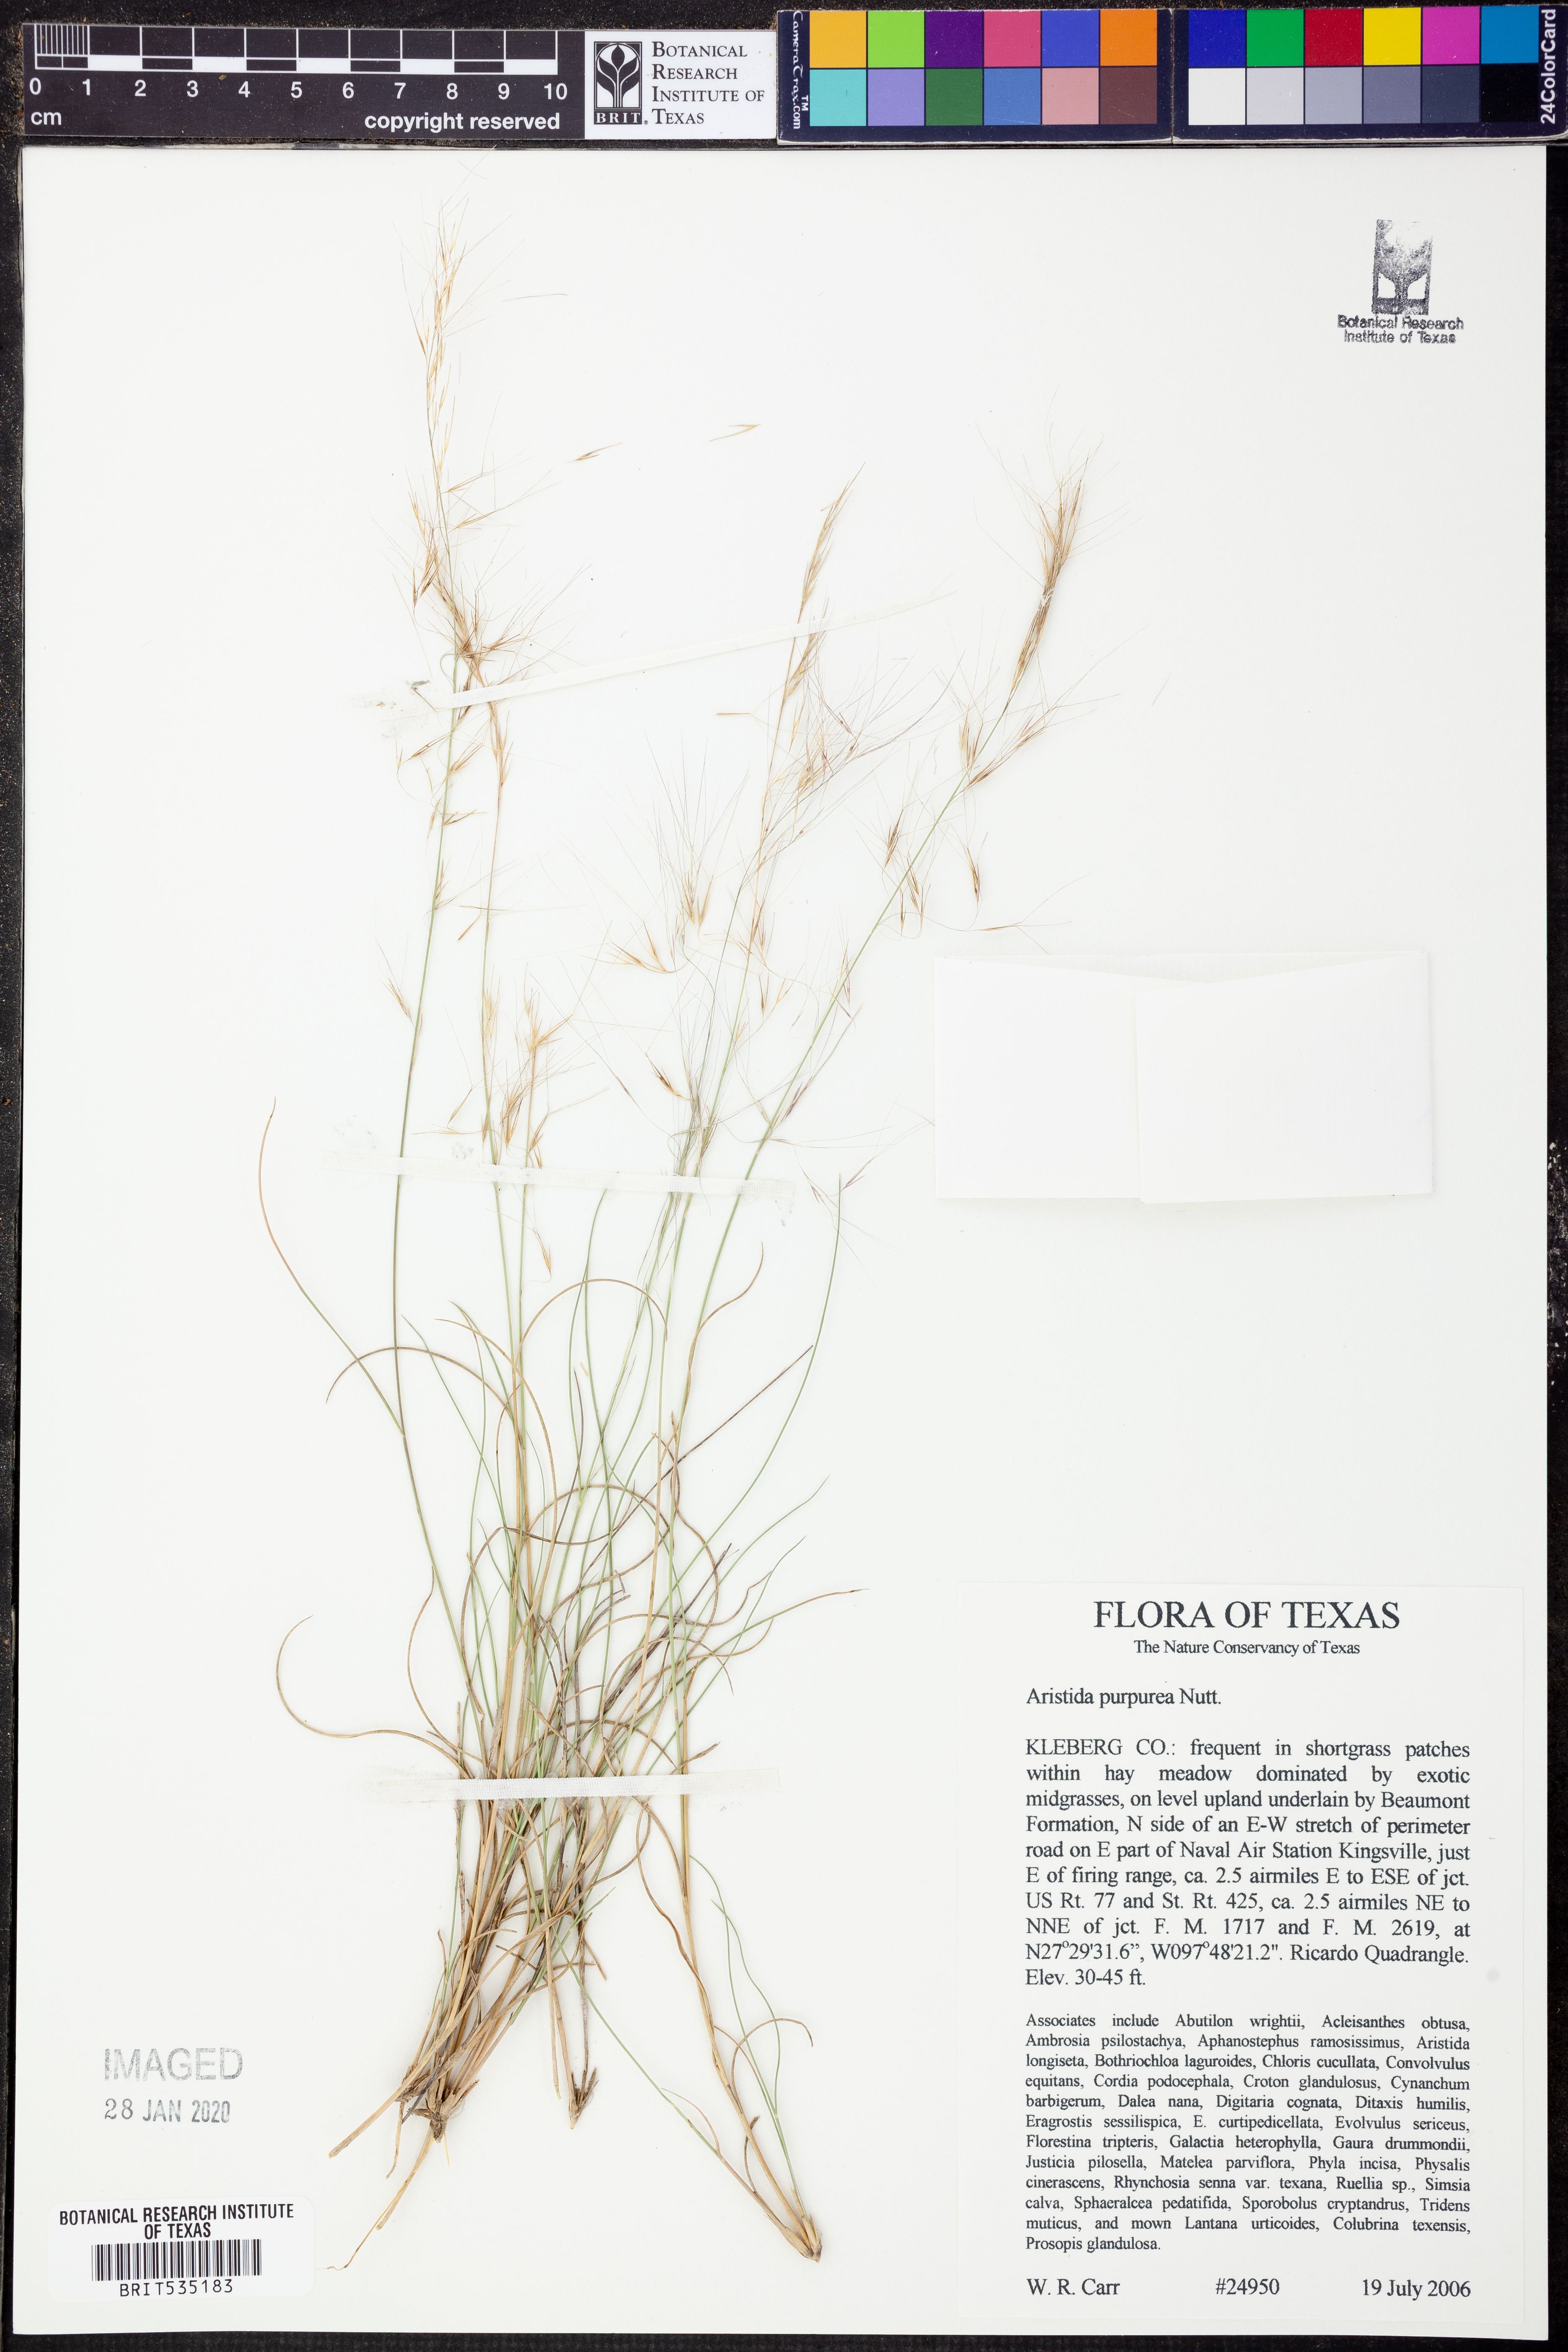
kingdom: Plantae
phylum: Tracheophyta
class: Liliopsida
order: Poales
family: Poaceae
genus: Aristida
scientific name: Aristida purpurea
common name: Purple threeawn
